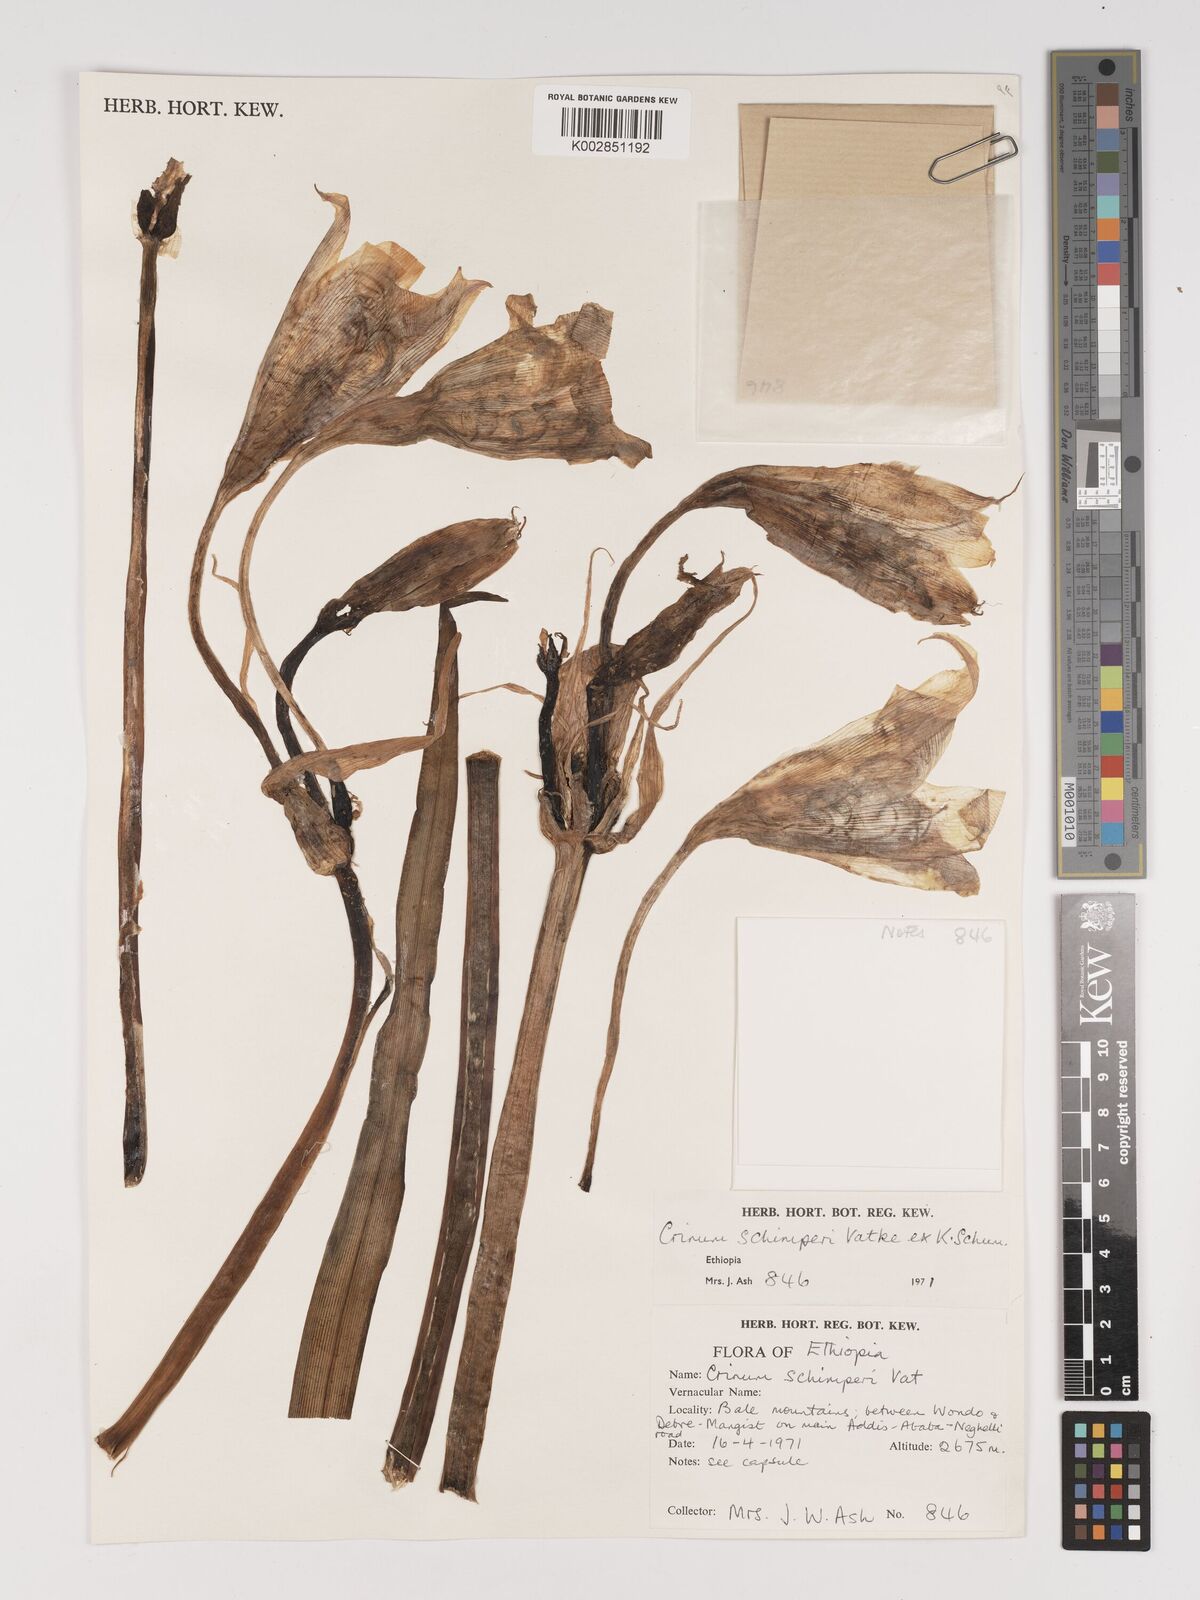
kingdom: Plantae
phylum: Tracheophyta
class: Liliopsida
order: Asparagales
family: Amaryllidaceae
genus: Crinum
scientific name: Crinum abyssinicum
